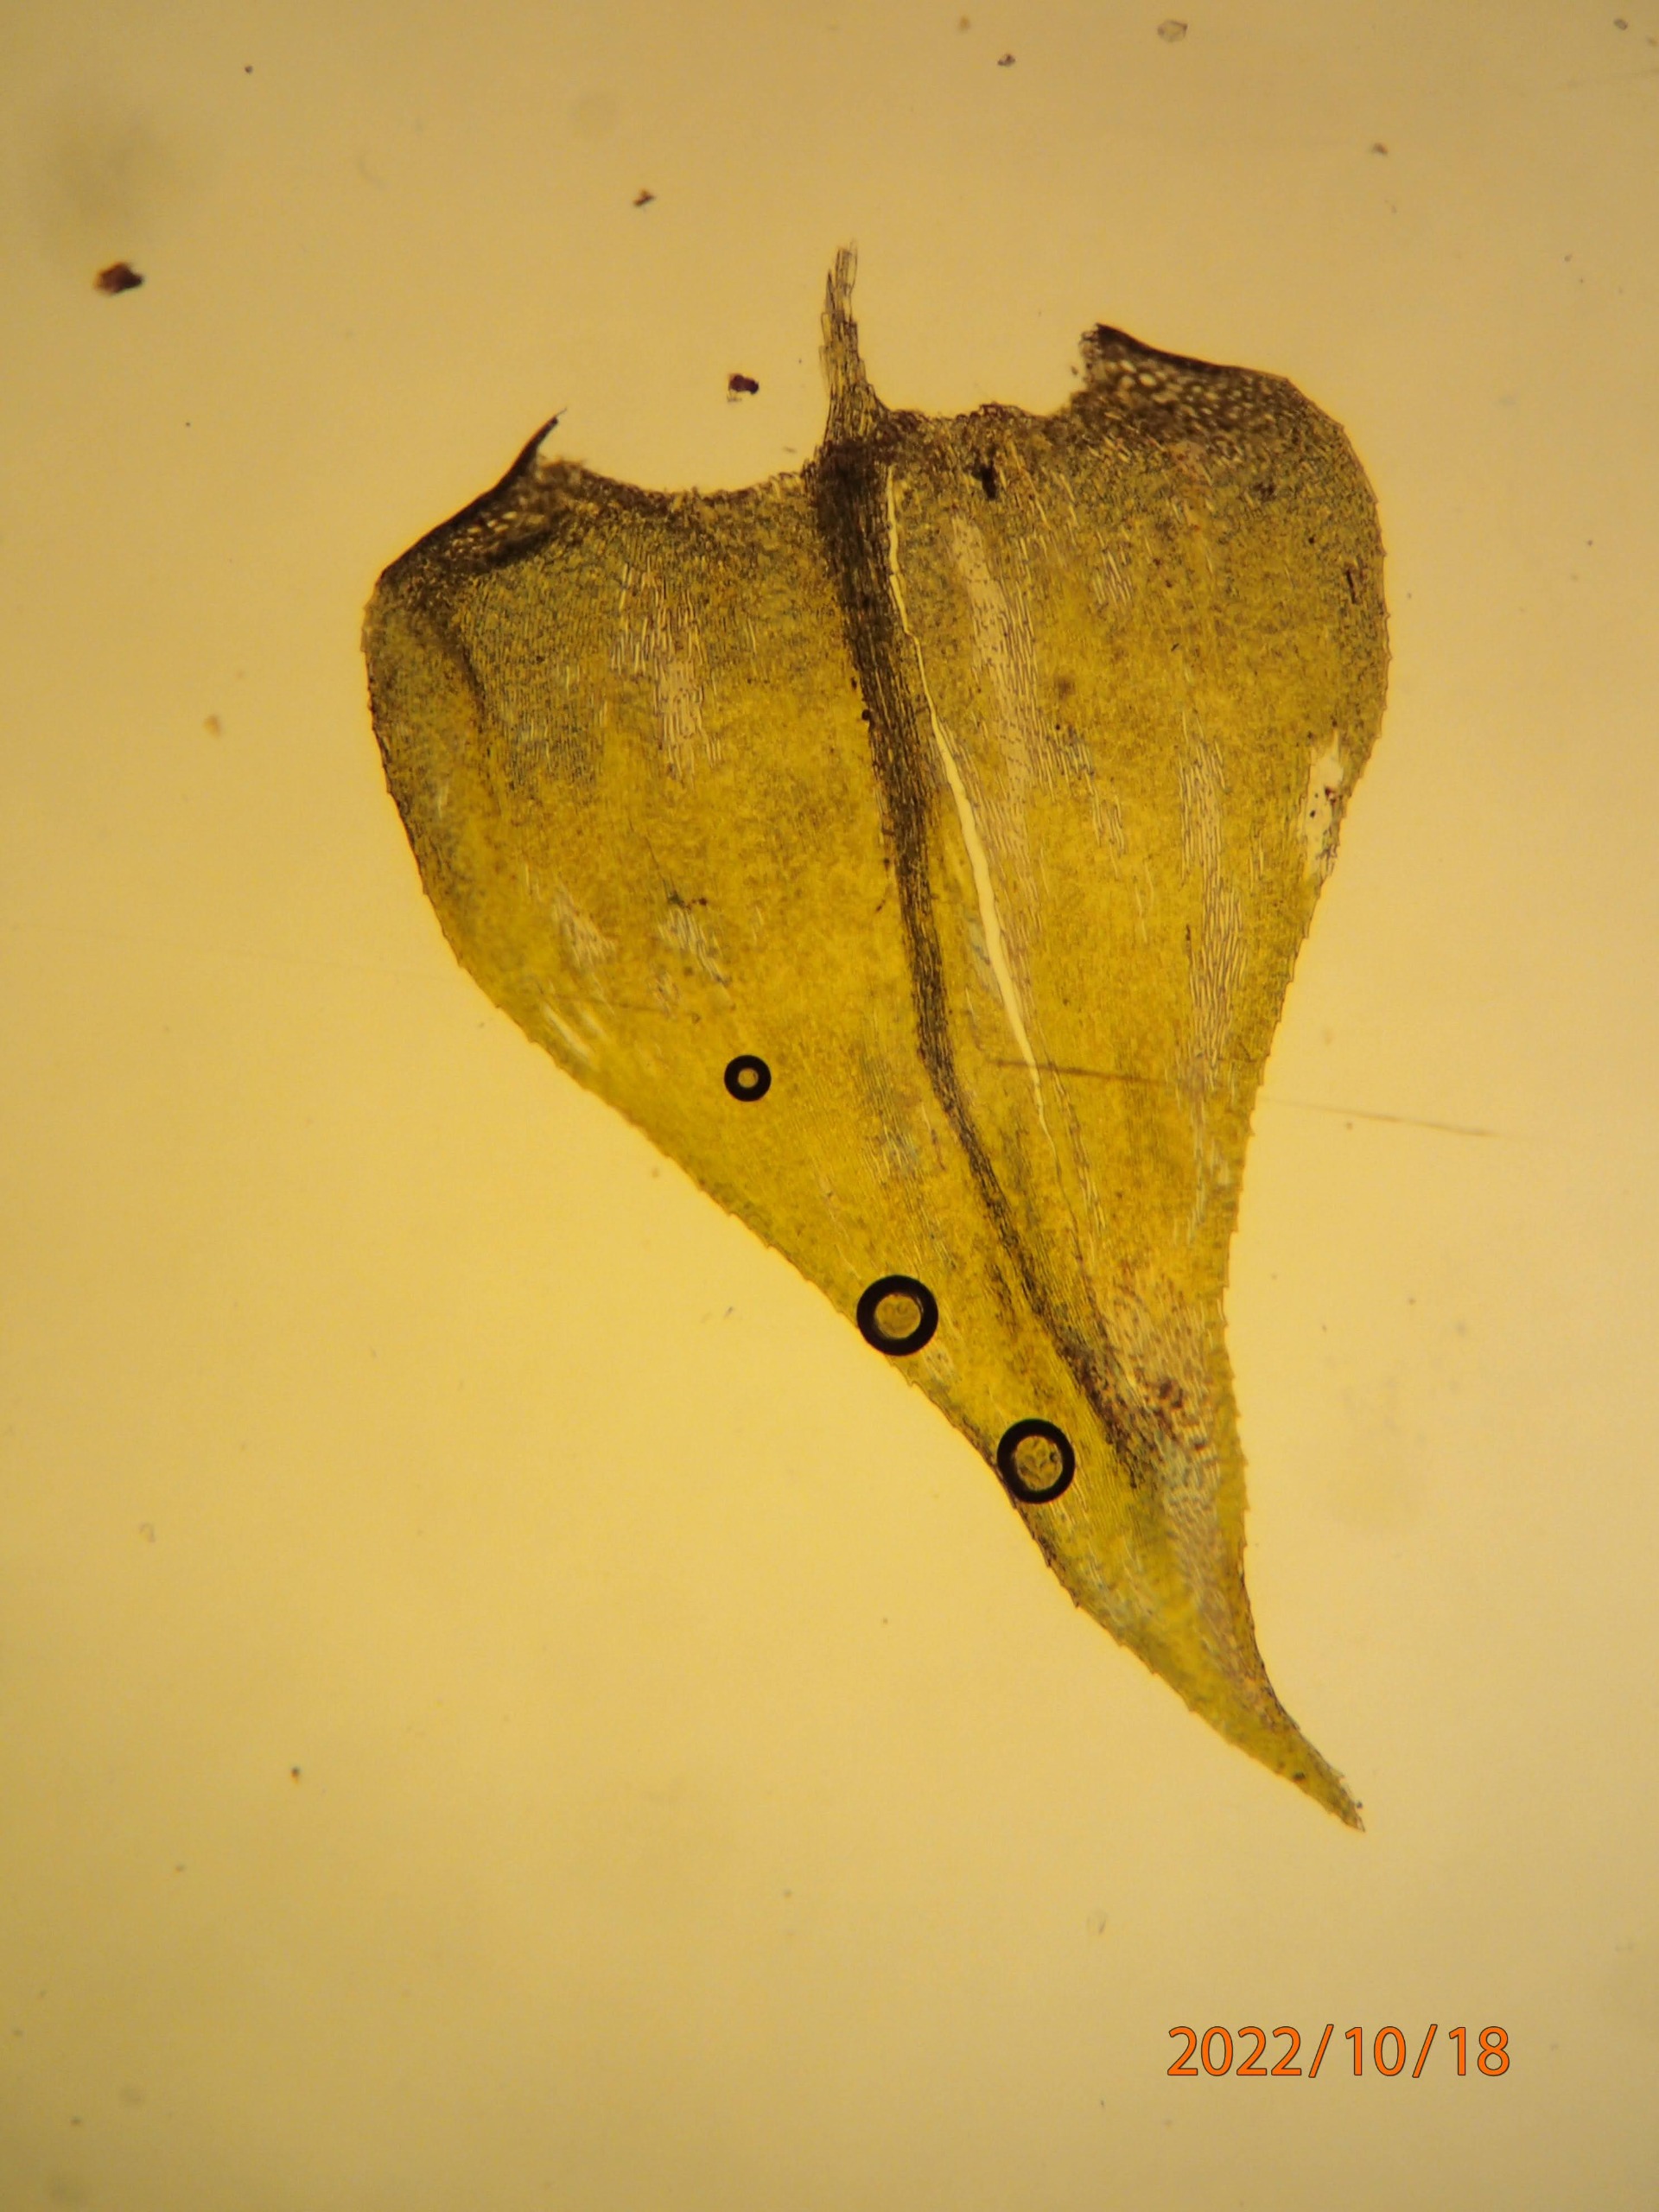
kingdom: Plantae
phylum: Bryophyta
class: Bryopsida
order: Hypnales
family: Brachytheciaceae
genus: Eurhynchium
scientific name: Eurhynchium striatum
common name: Stribet næbmos
